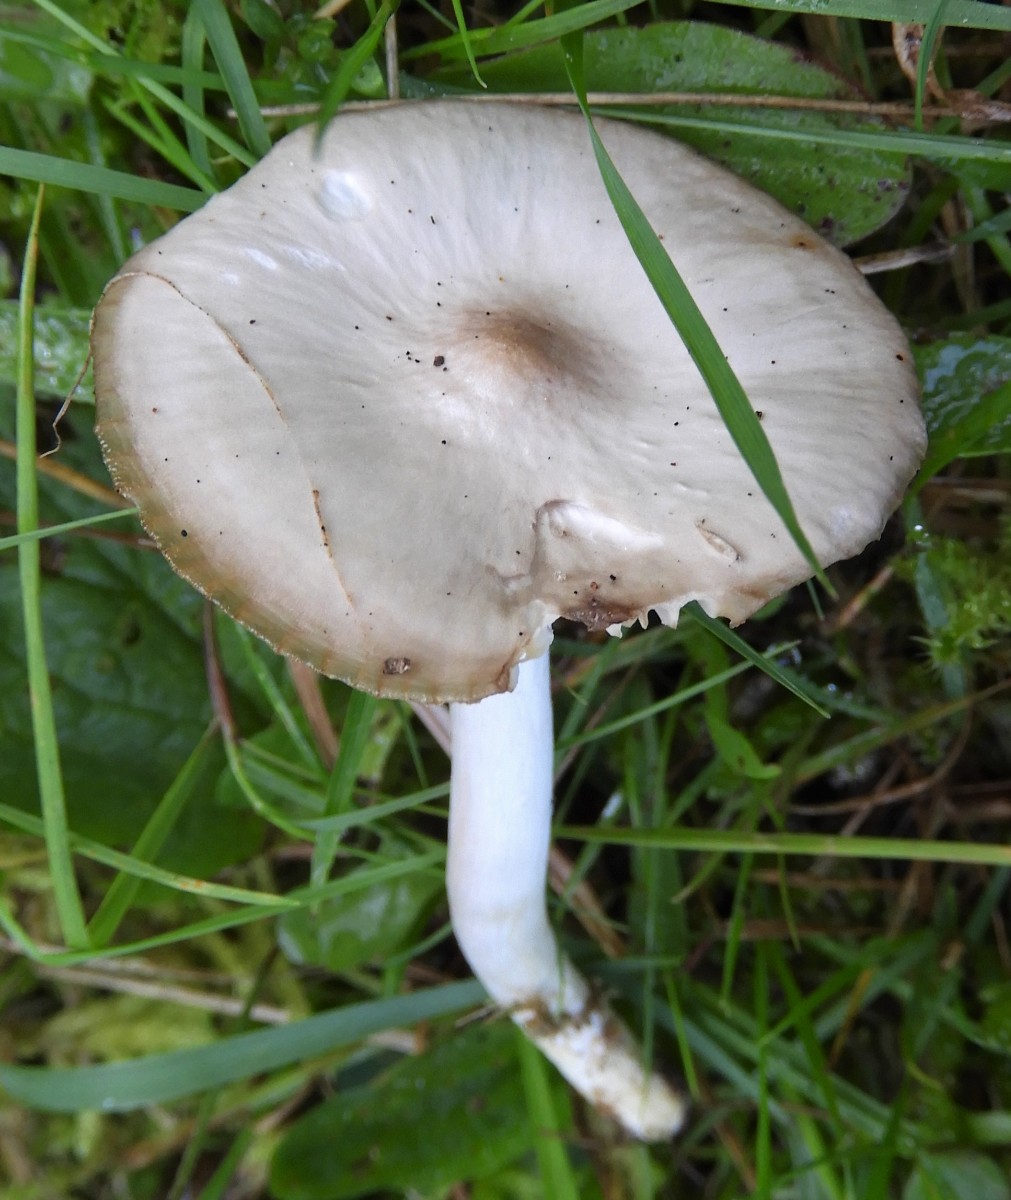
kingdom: Fungi
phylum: Basidiomycota
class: Agaricomycetes
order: Agaricales
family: Hygrophoraceae
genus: Cuphophyllus
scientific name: Cuphophyllus fornicatus
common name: gråbrun vokshat
